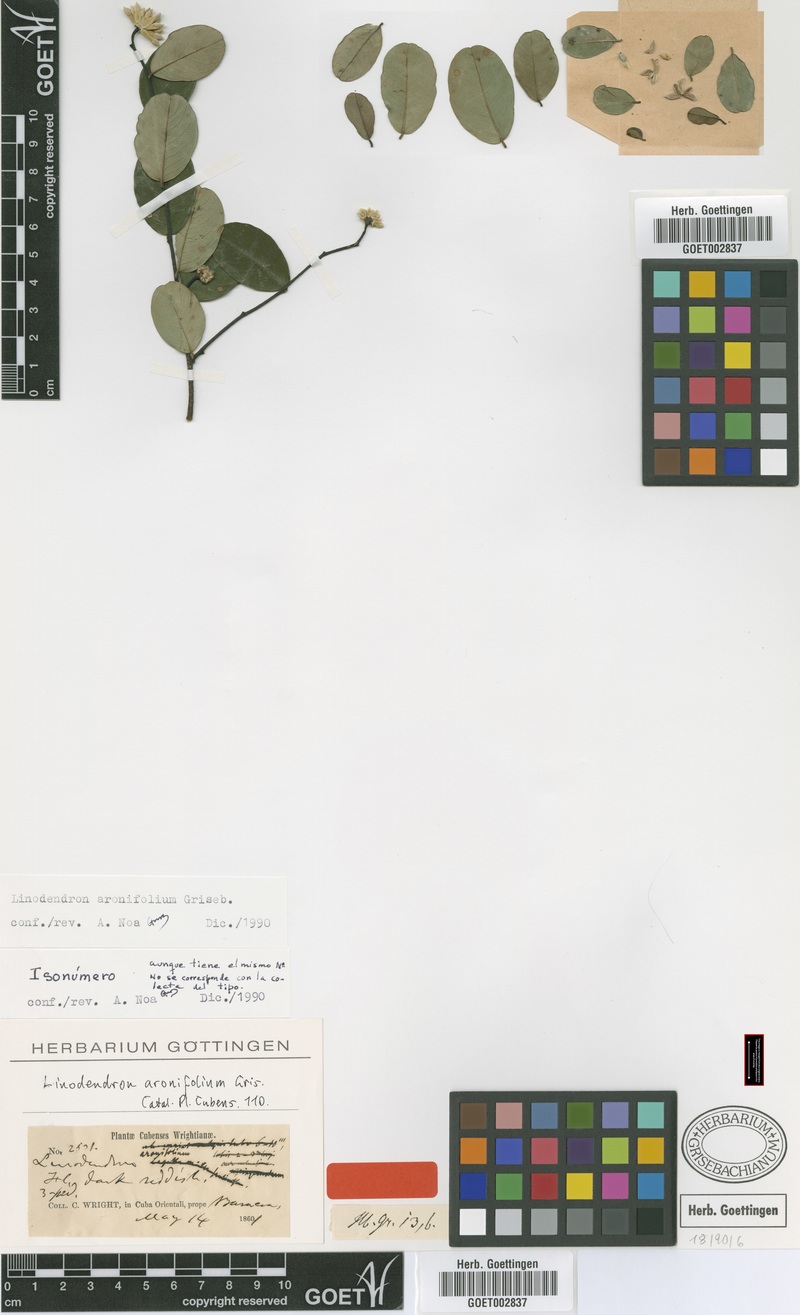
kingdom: Plantae
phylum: Tracheophyta
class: Magnoliopsida
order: Malvales
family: Thymelaeaceae
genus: Linodendron
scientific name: Linodendron aronifolium
